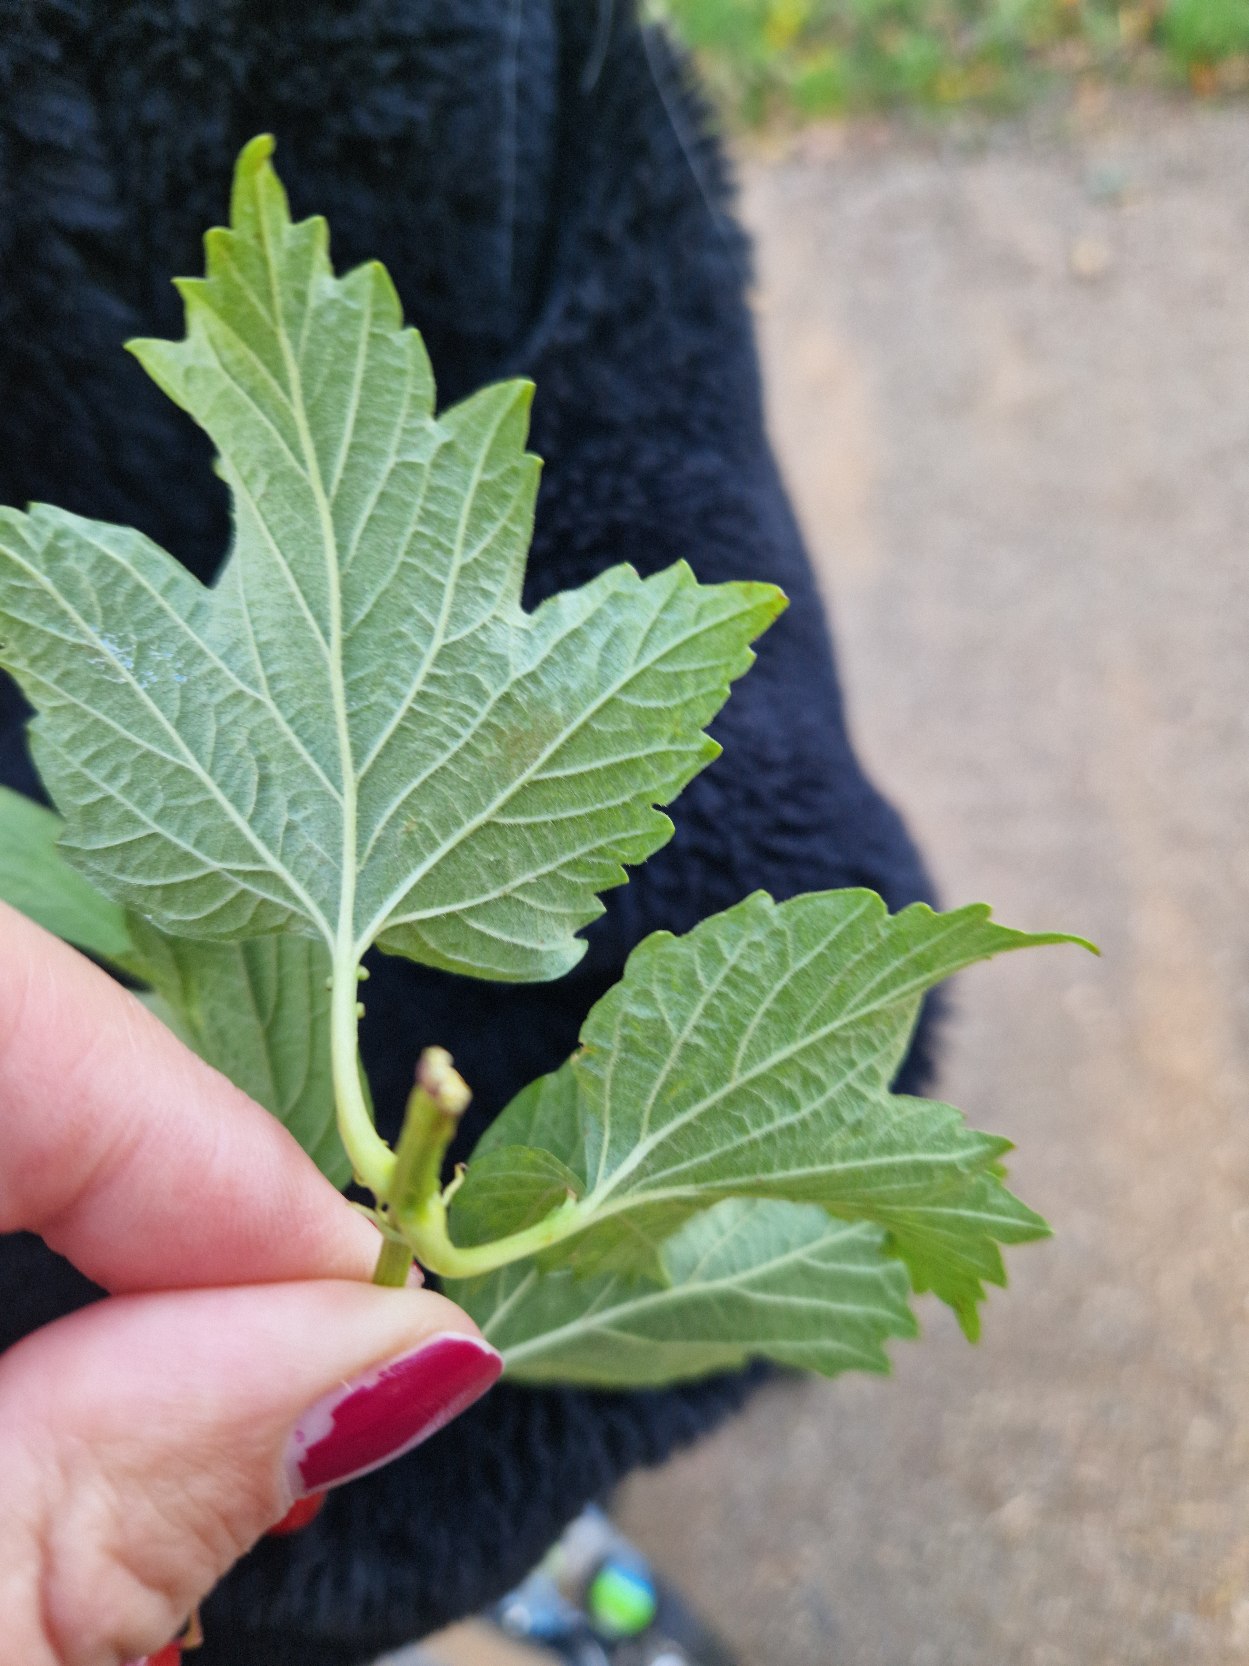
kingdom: Plantae
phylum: Tracheophyta
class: Magnoliopsida
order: Dipsacales
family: Viburnaceae
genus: Viburnum
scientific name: Viburnum opulus
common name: Kvalkved
